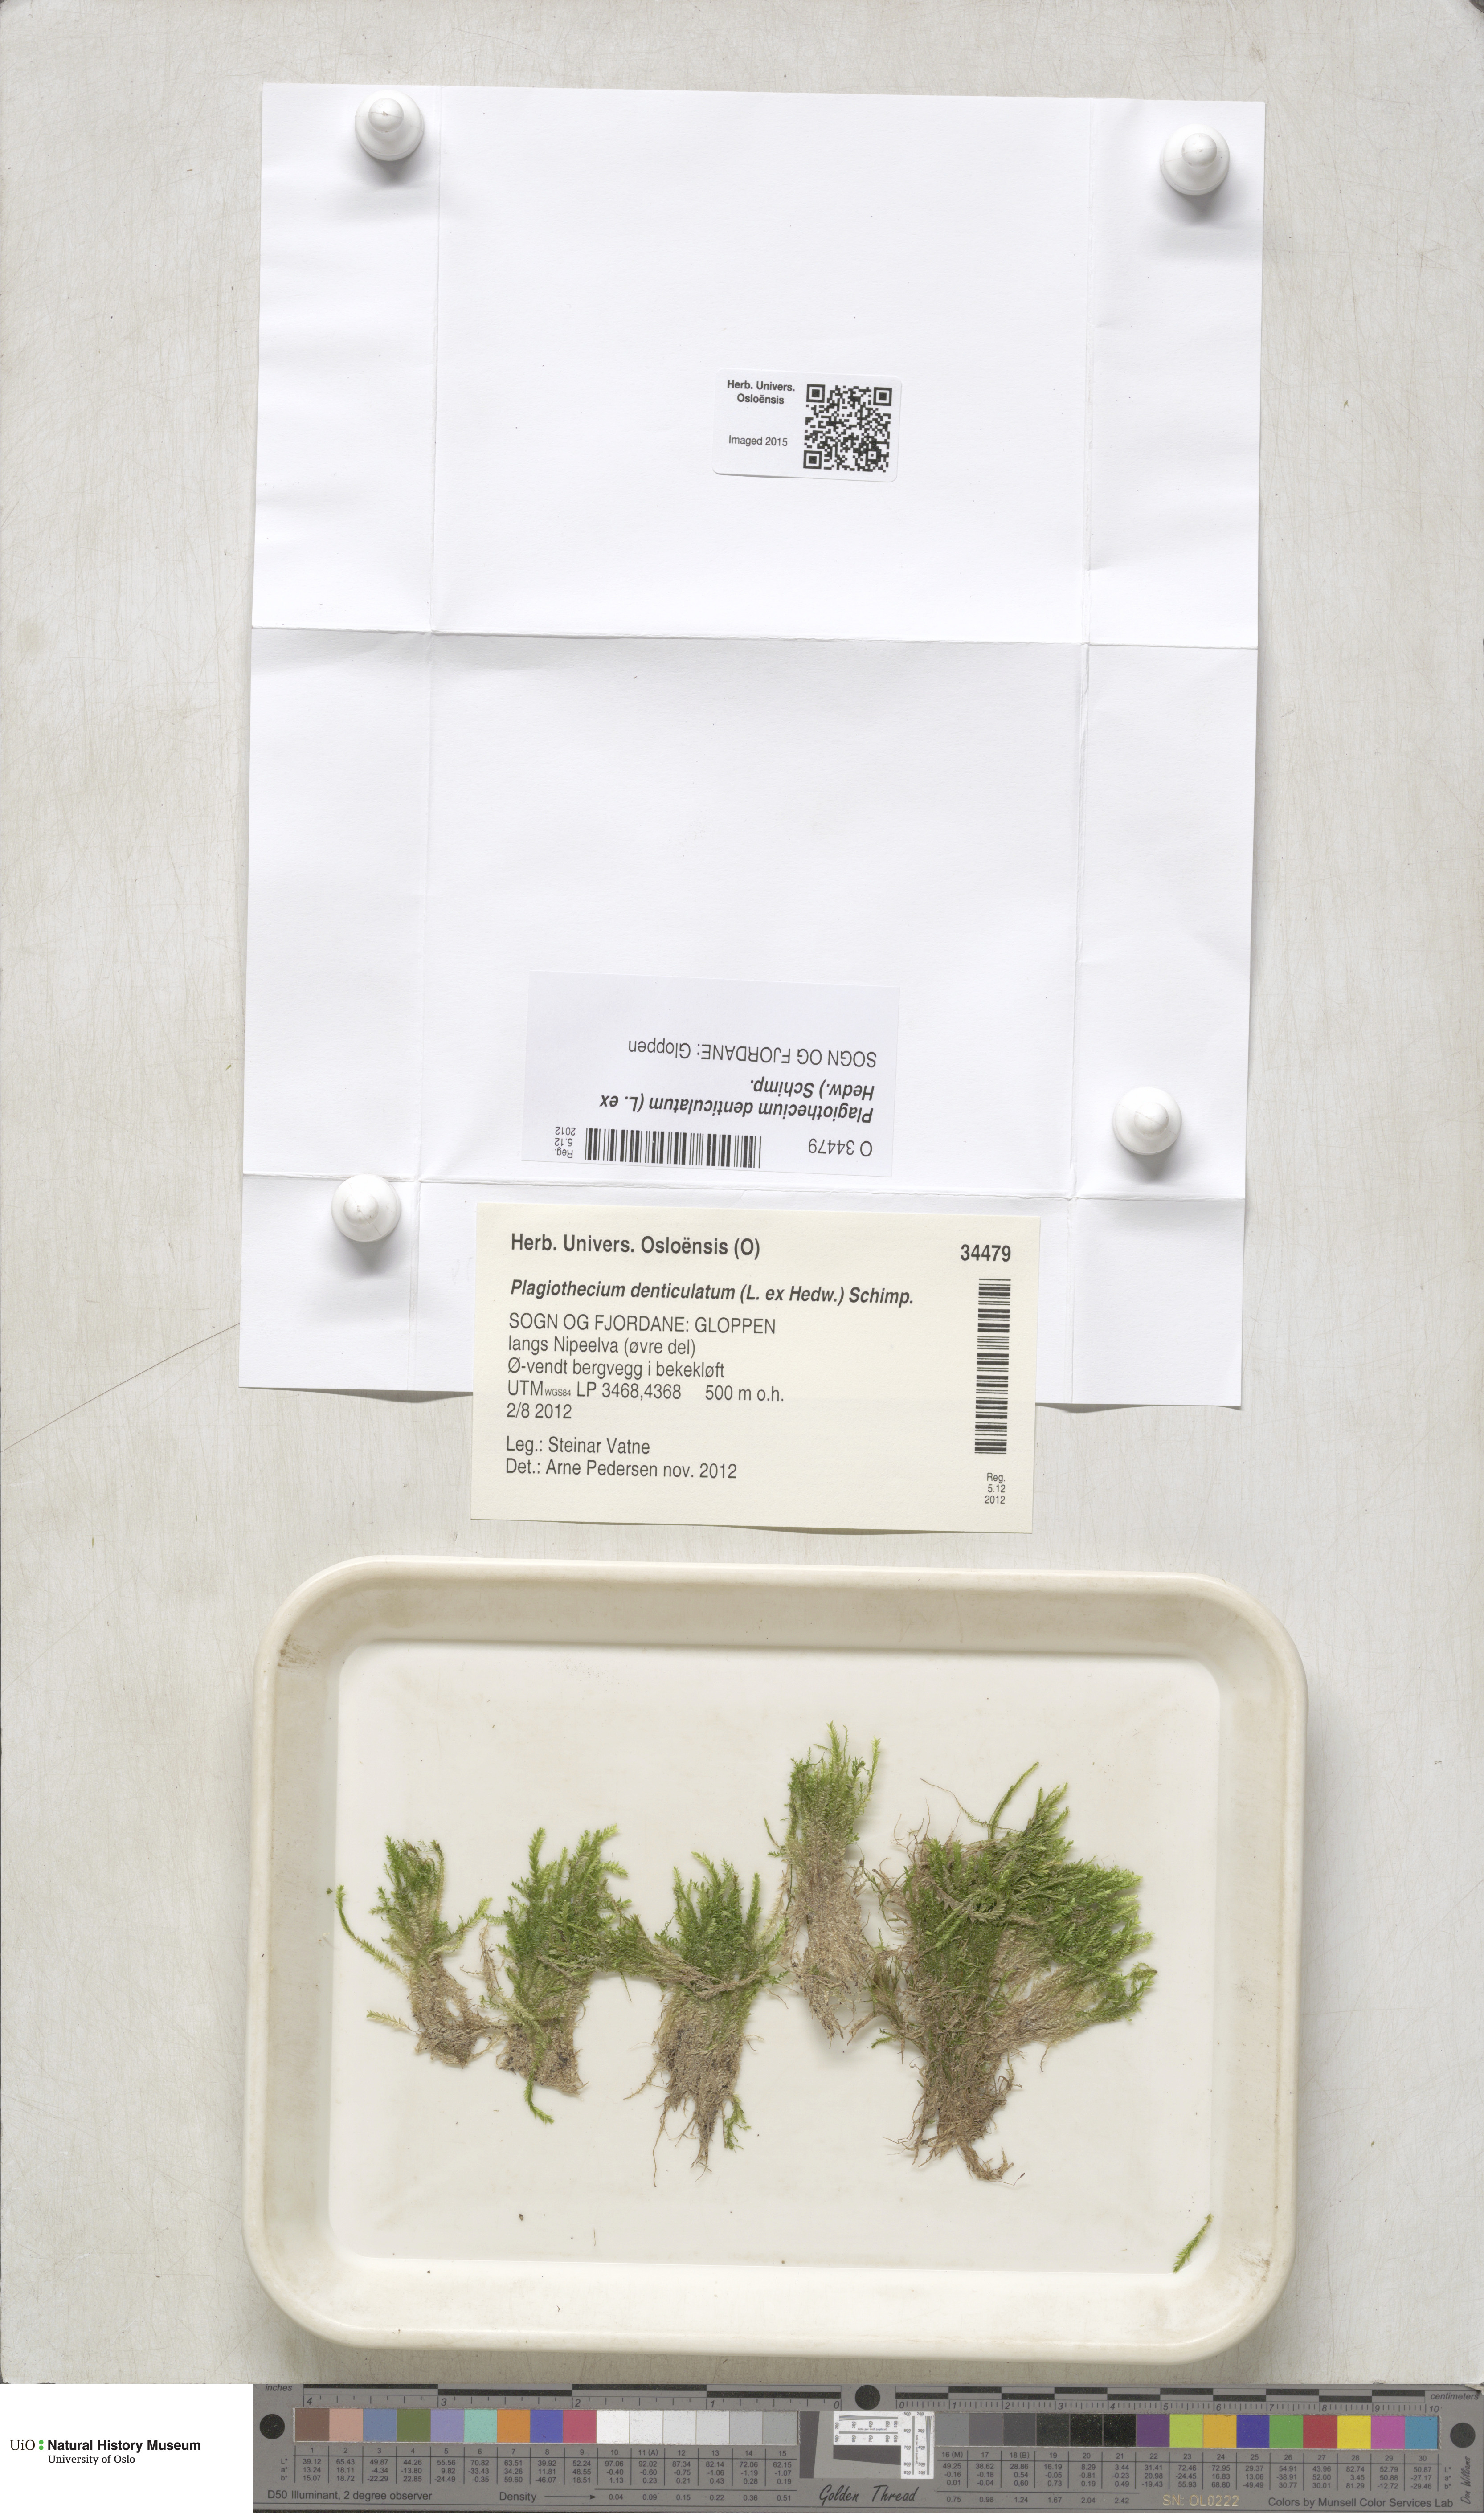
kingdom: Plantae
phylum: Bryophyta
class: Bryopsida
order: Hypnales
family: Plagiotheciaceae
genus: Plagiothecium
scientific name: Plagiothecium denticulatum
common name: Dented silk moss
